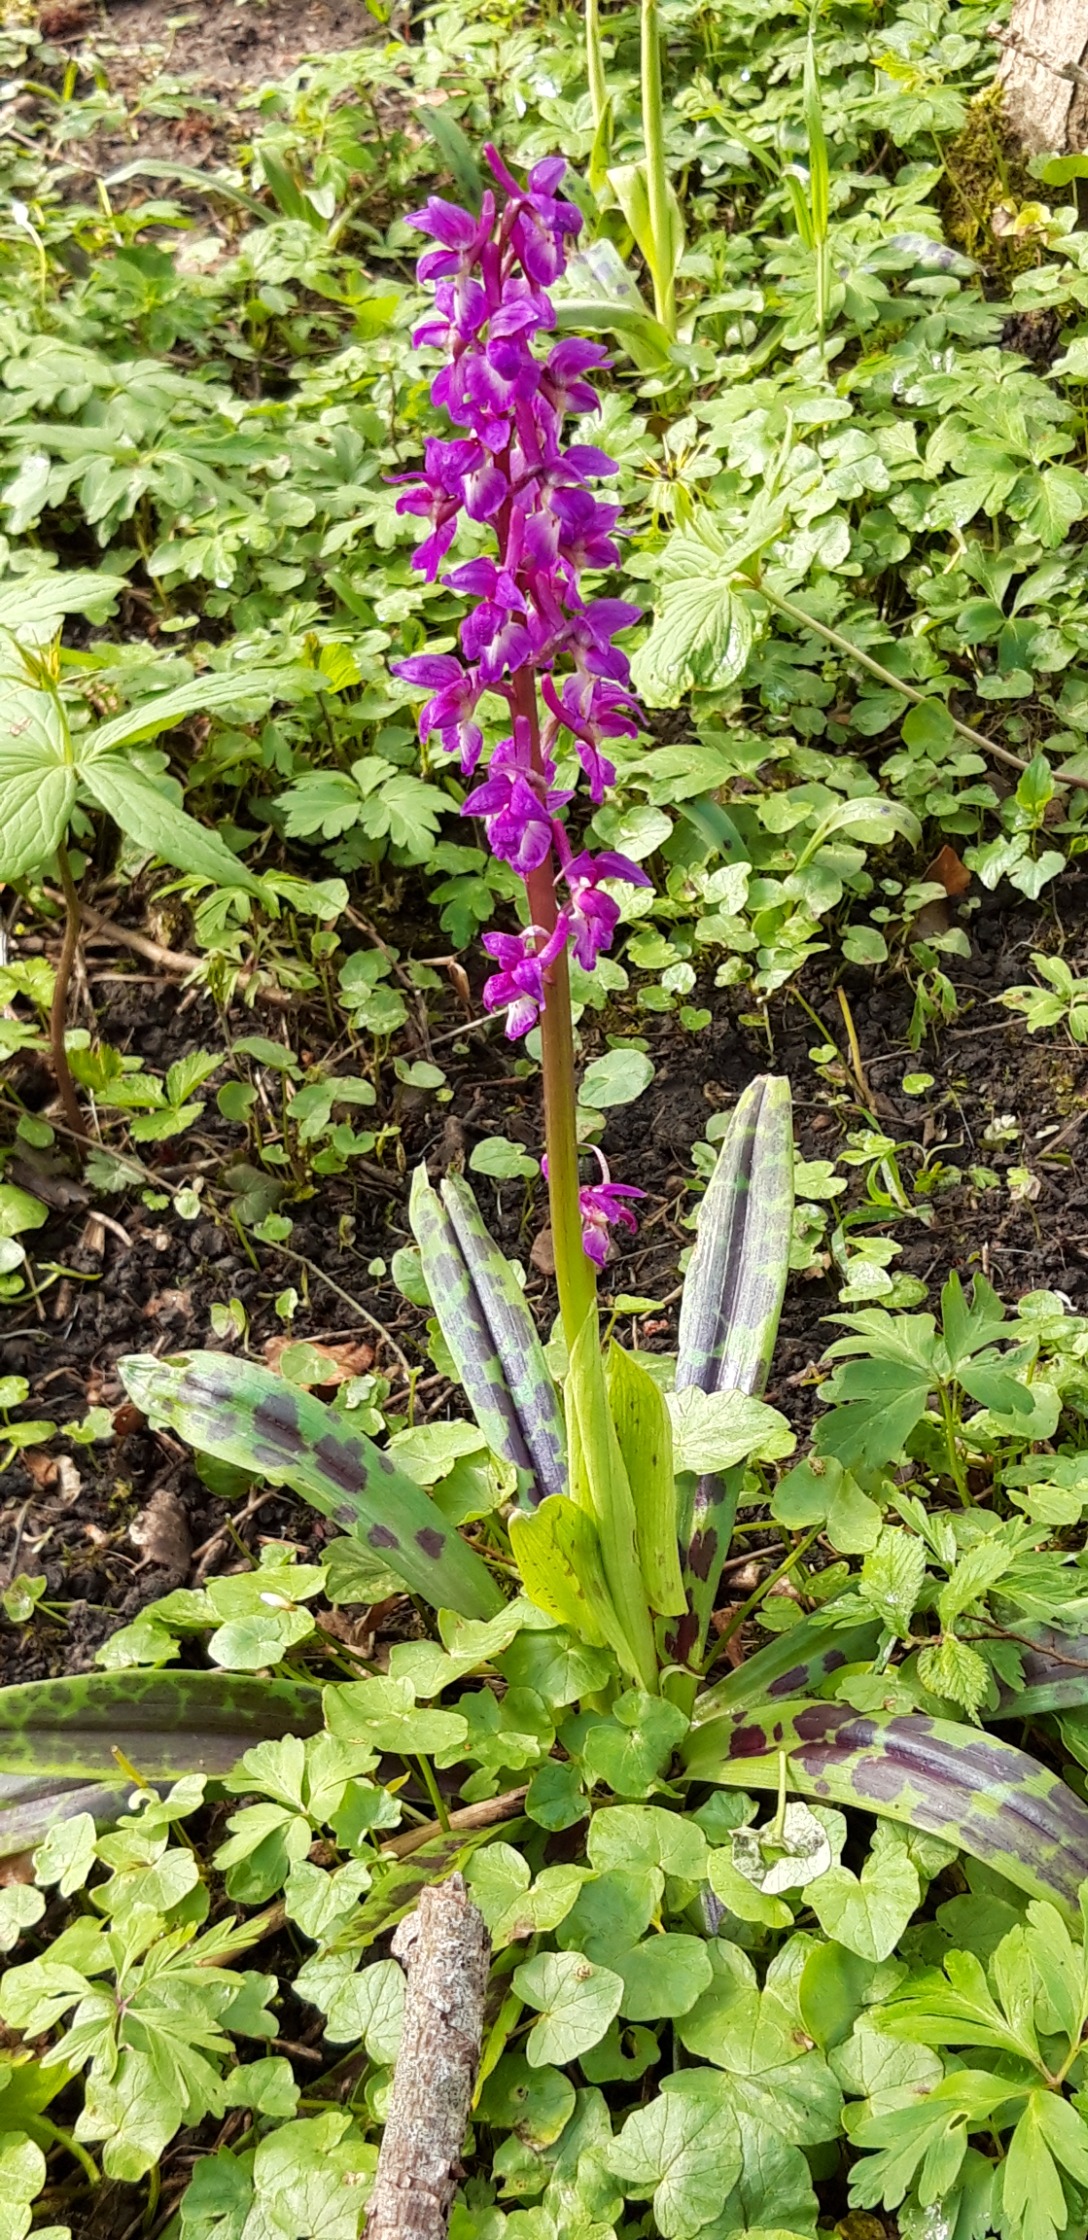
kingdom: Plantae
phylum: Tracheophyta
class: Liliopsida
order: Asparagales
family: Orchidaceae
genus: Orchis
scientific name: Orchis mascula
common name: Tyndakset gøgeurt
